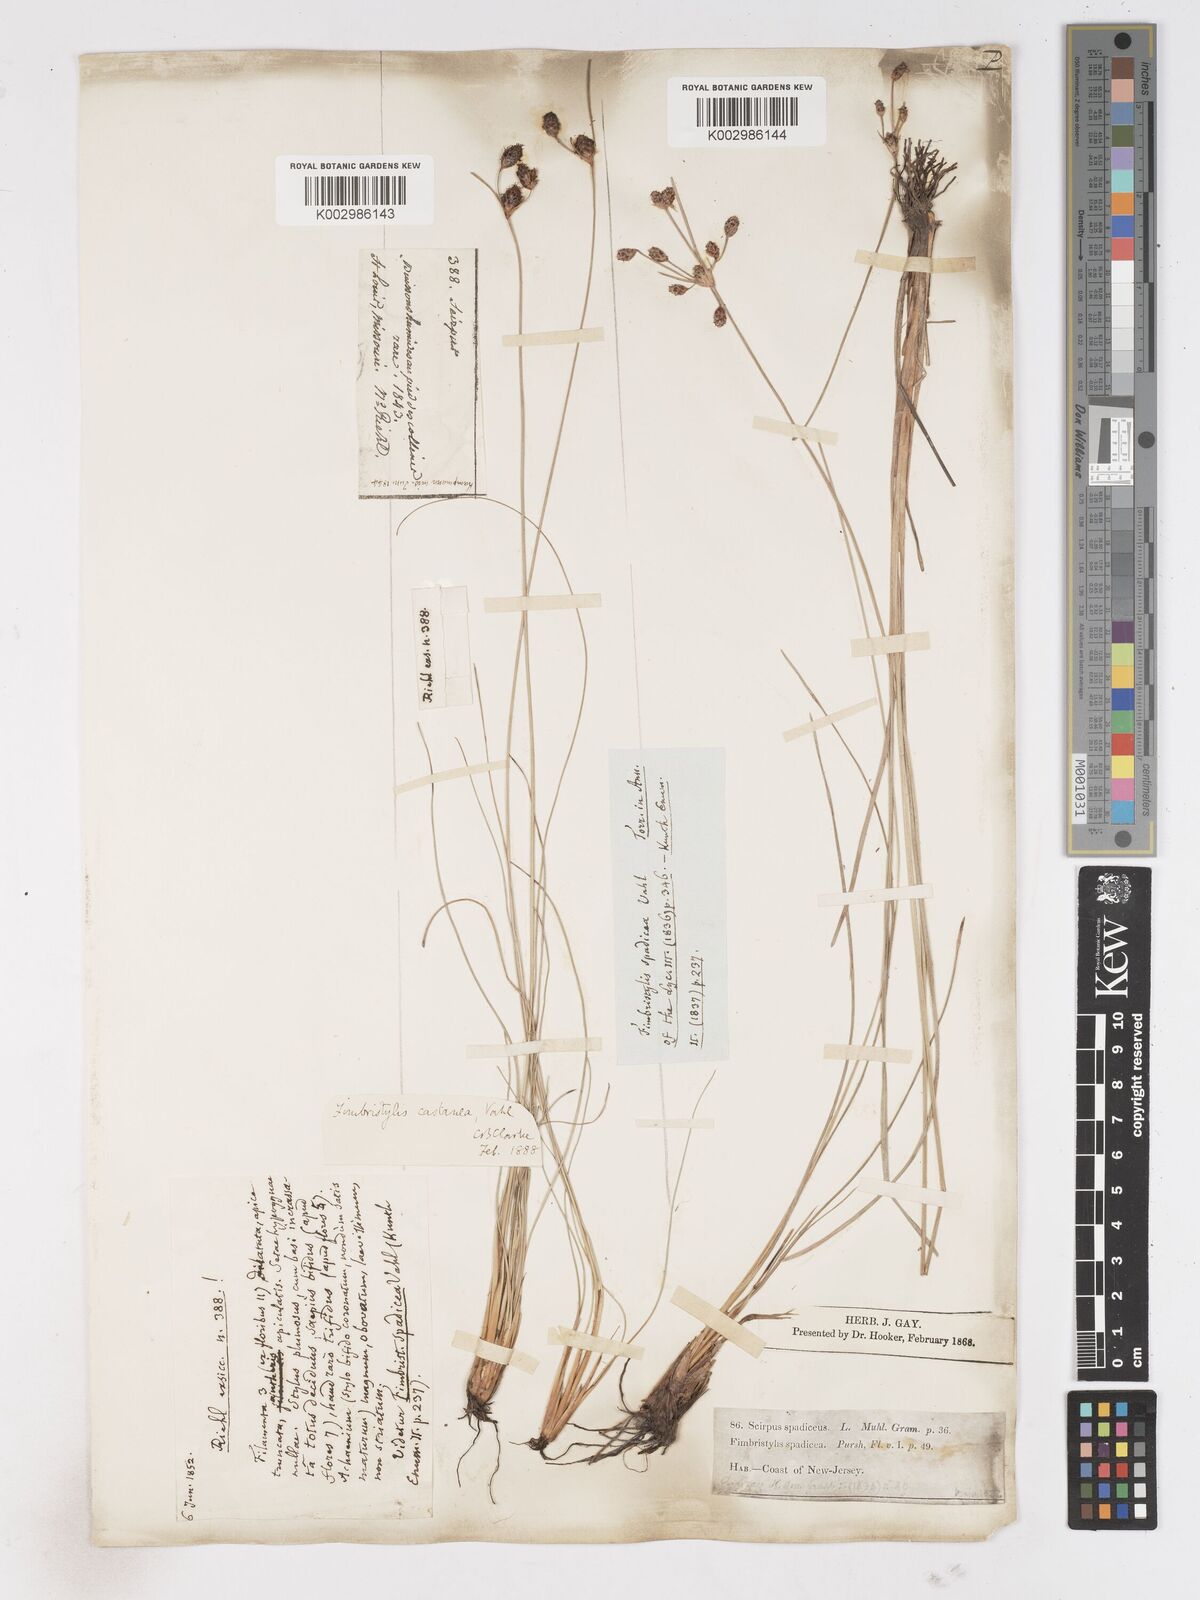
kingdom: Plantae
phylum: Tracheophyta
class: Liliopsida
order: Poales
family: Cyperaceae
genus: Fimbristylis
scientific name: Fimbristylis spadicea
